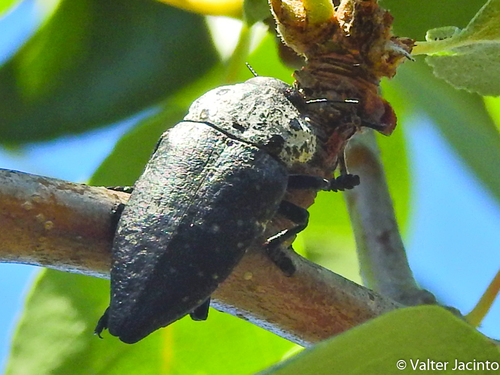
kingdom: Animalia
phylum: Arthropoda
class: Insecta
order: Coleoptera
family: Buprestidae
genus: Capnodis
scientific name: Capnodis tenebrionis
